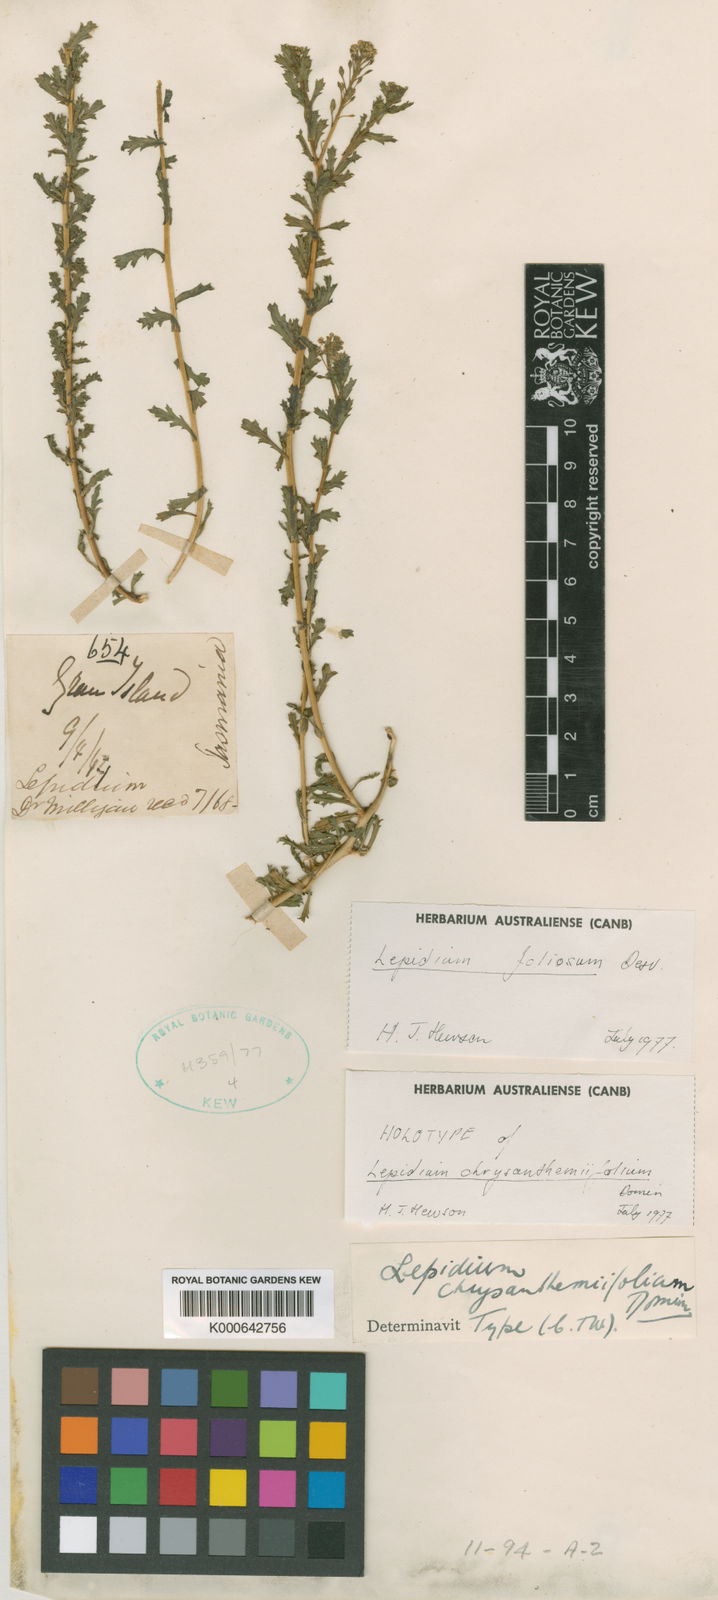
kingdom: Plantae
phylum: Tracheophyta
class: Magnoliopsida
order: Brassicales
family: Brassicaceae
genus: Lepidium
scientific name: Lepidium foliosum
